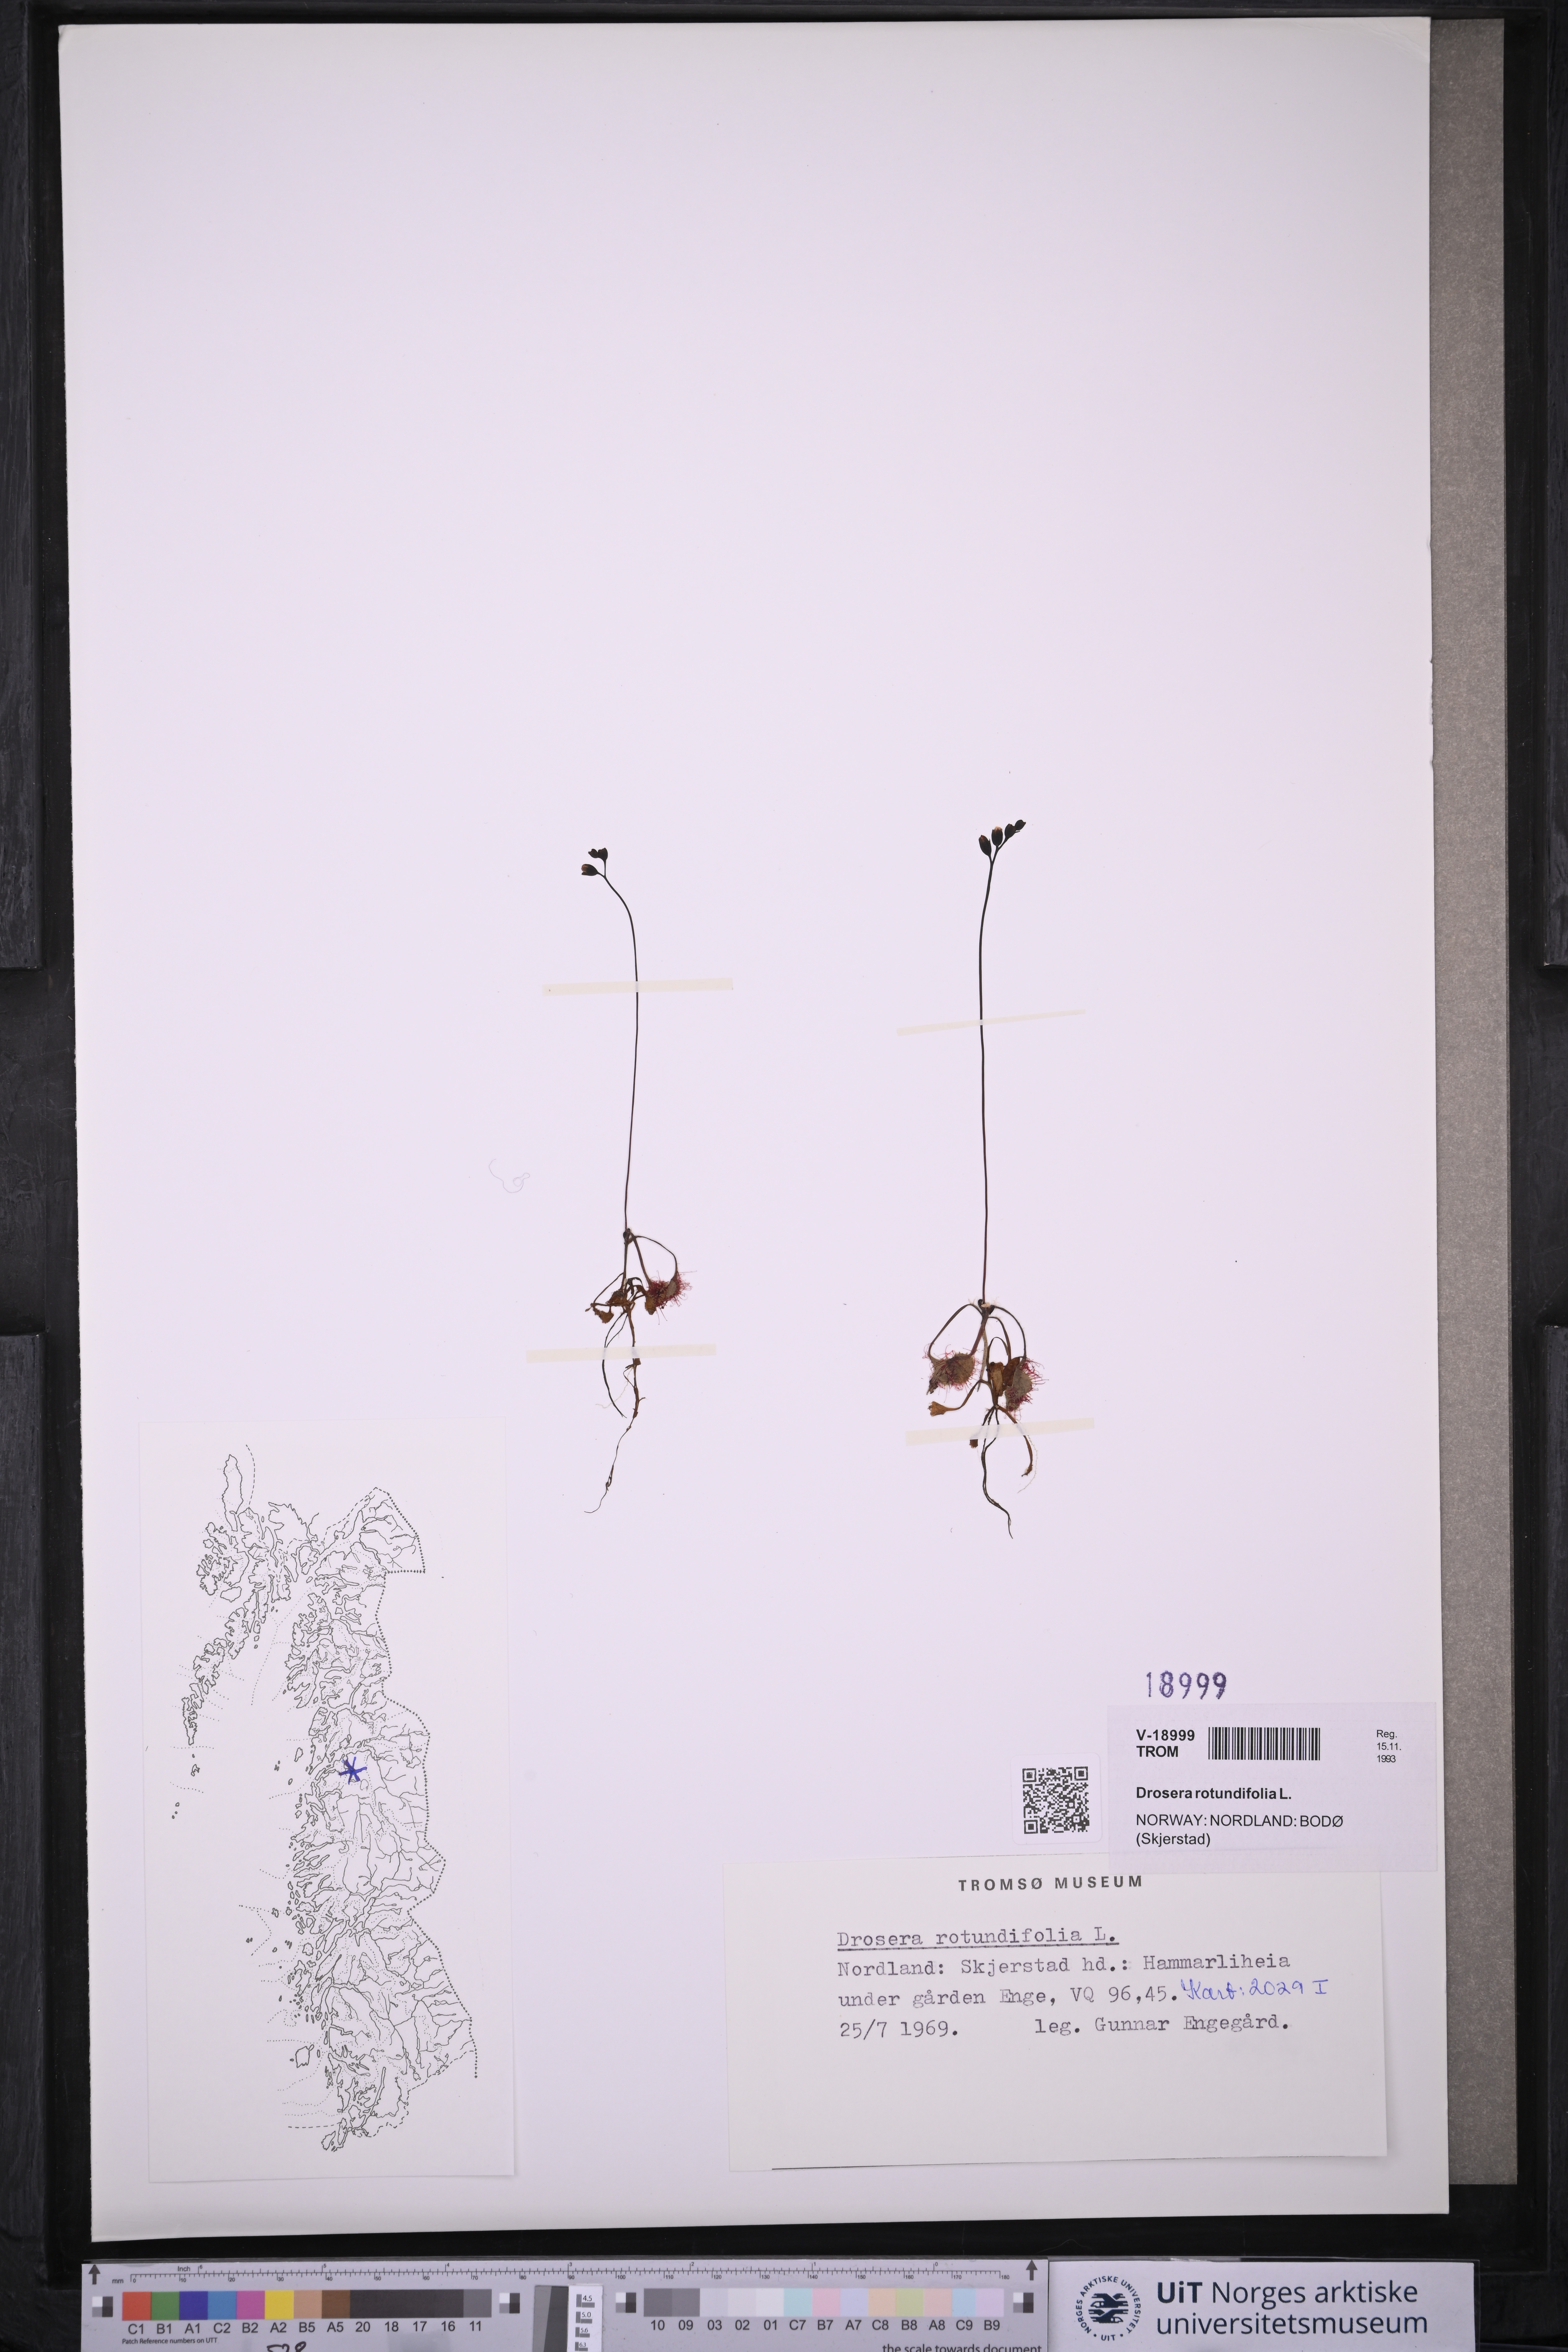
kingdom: Plantae
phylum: Tracheophyta
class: Magnoliopsida
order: Caryophyllales
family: Droseraceae
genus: Drosera
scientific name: Drosera rotundifolia
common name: Round-leaved sundew
